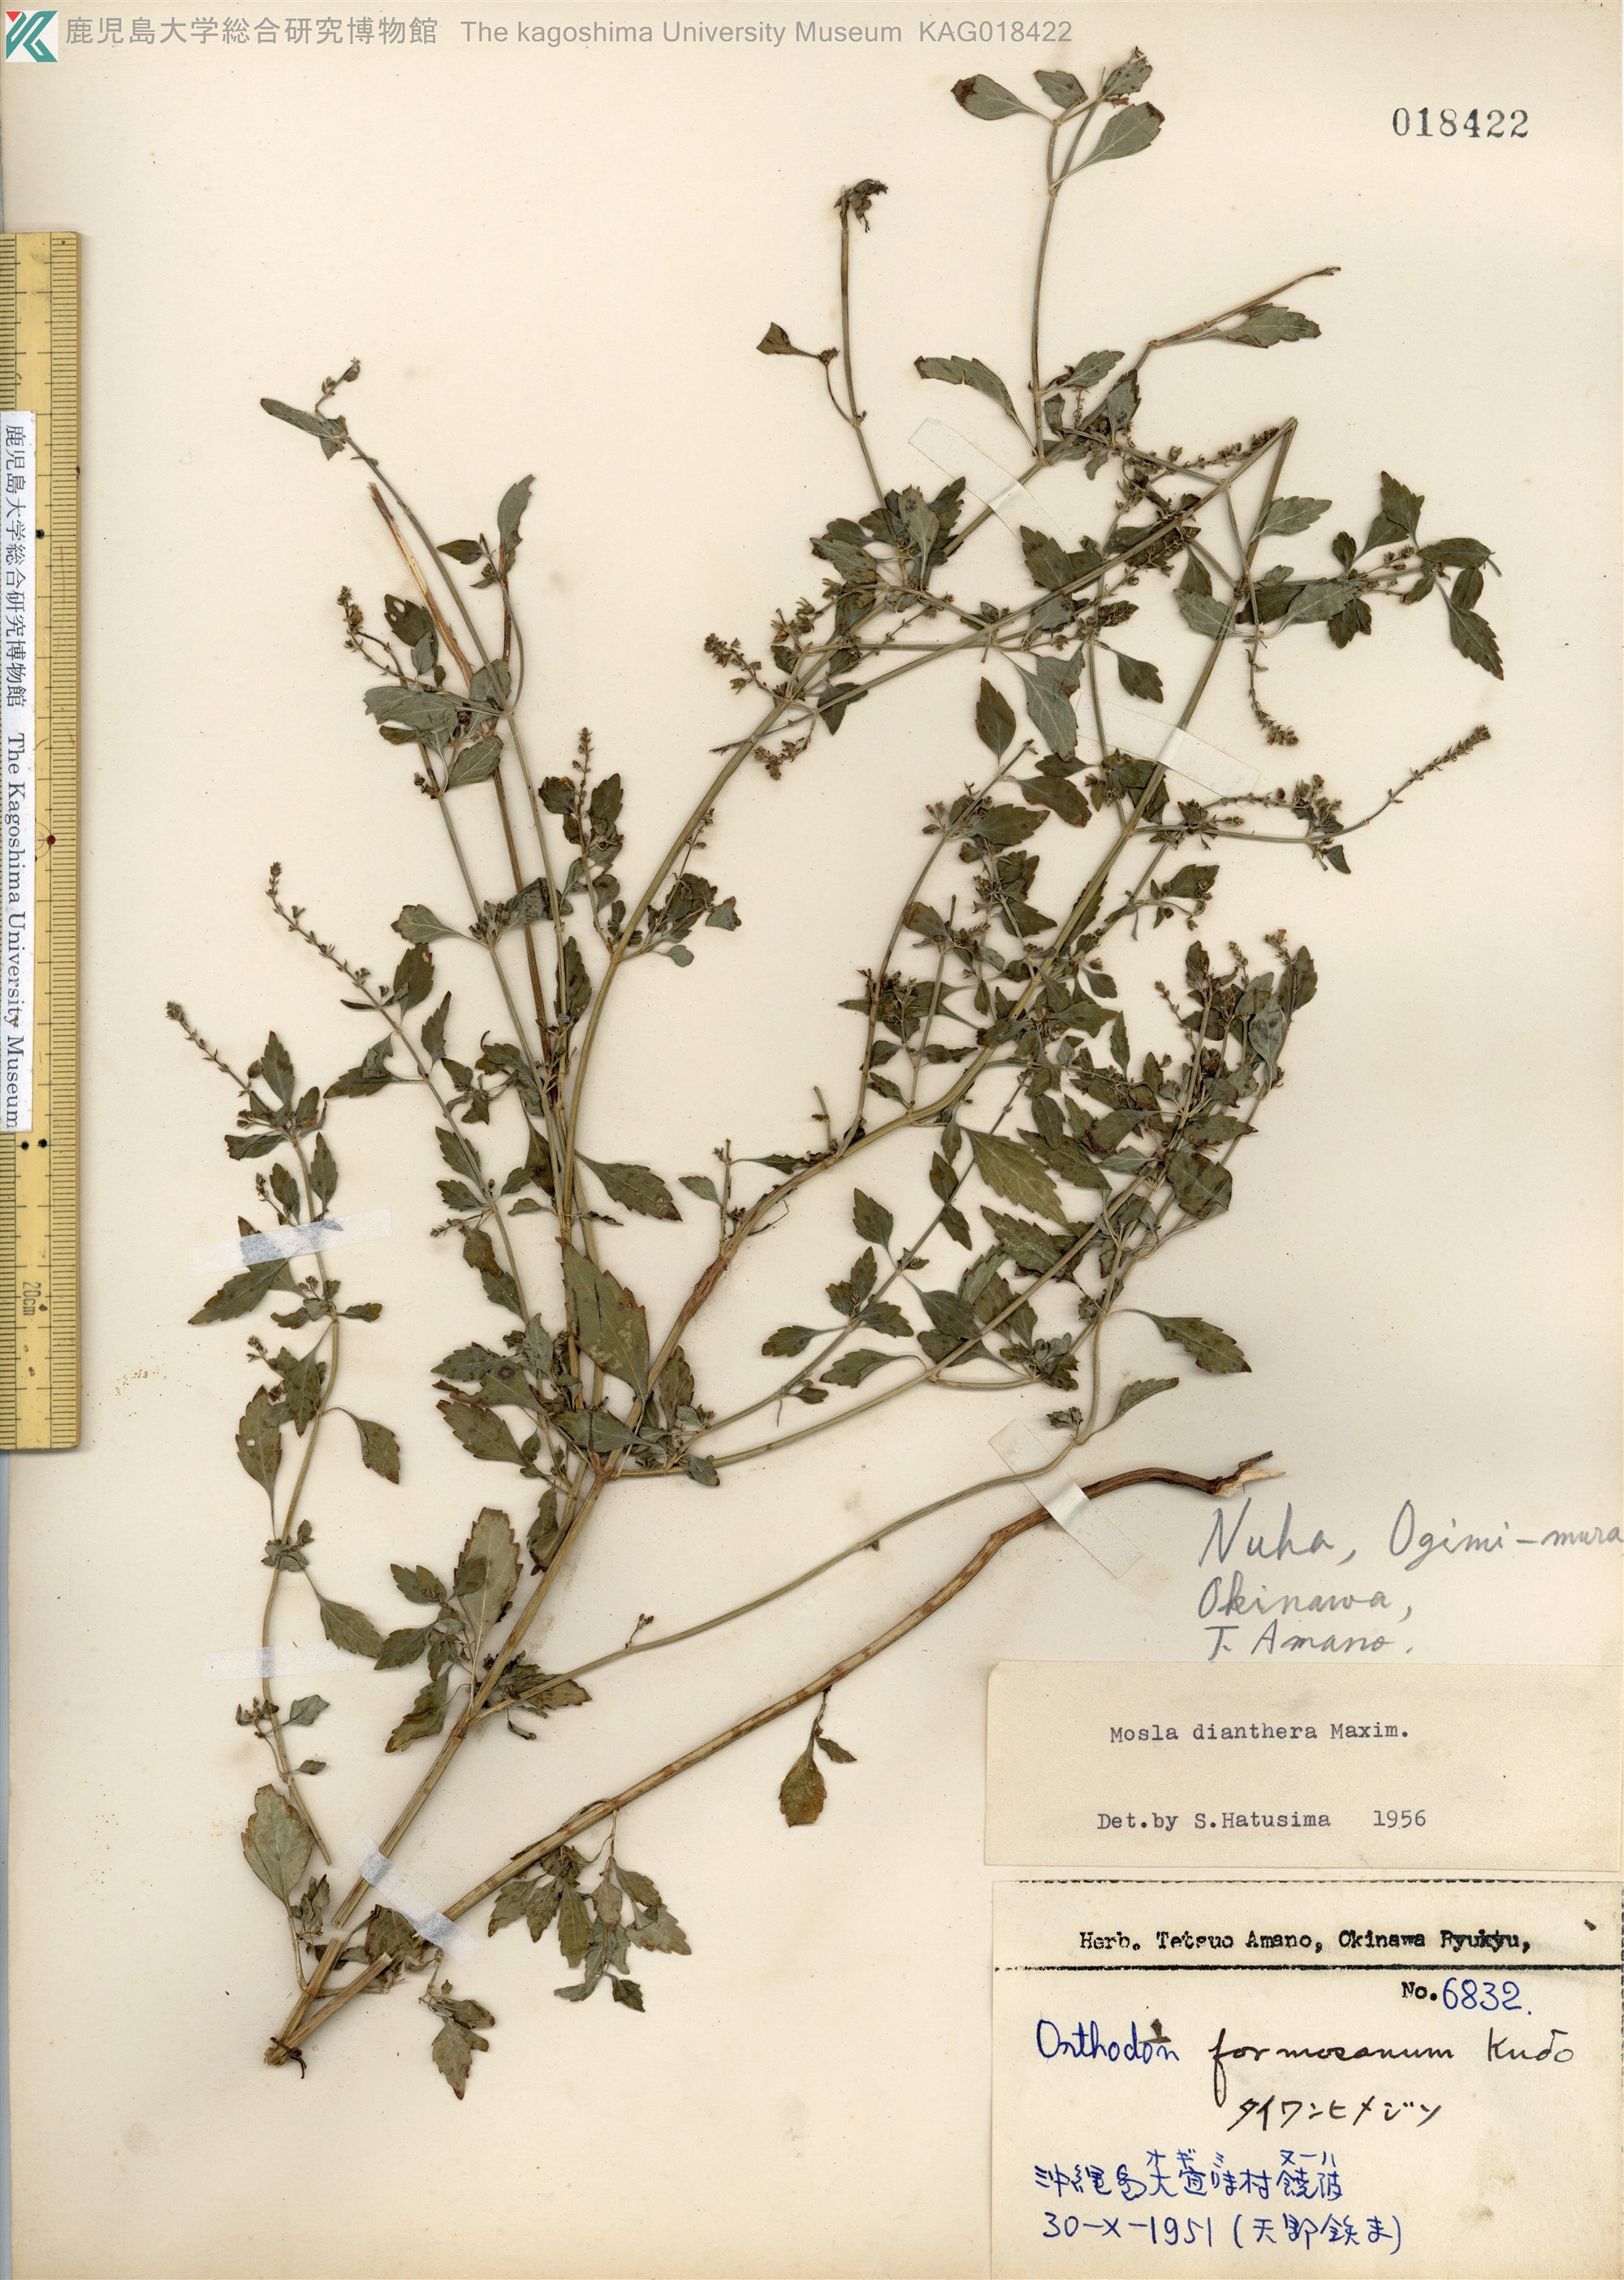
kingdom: Plantae
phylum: Tracheophyta
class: Magnoliopsida
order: Lamiales
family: Lamiaceae
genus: Mosla
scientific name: Mosla dianthera
